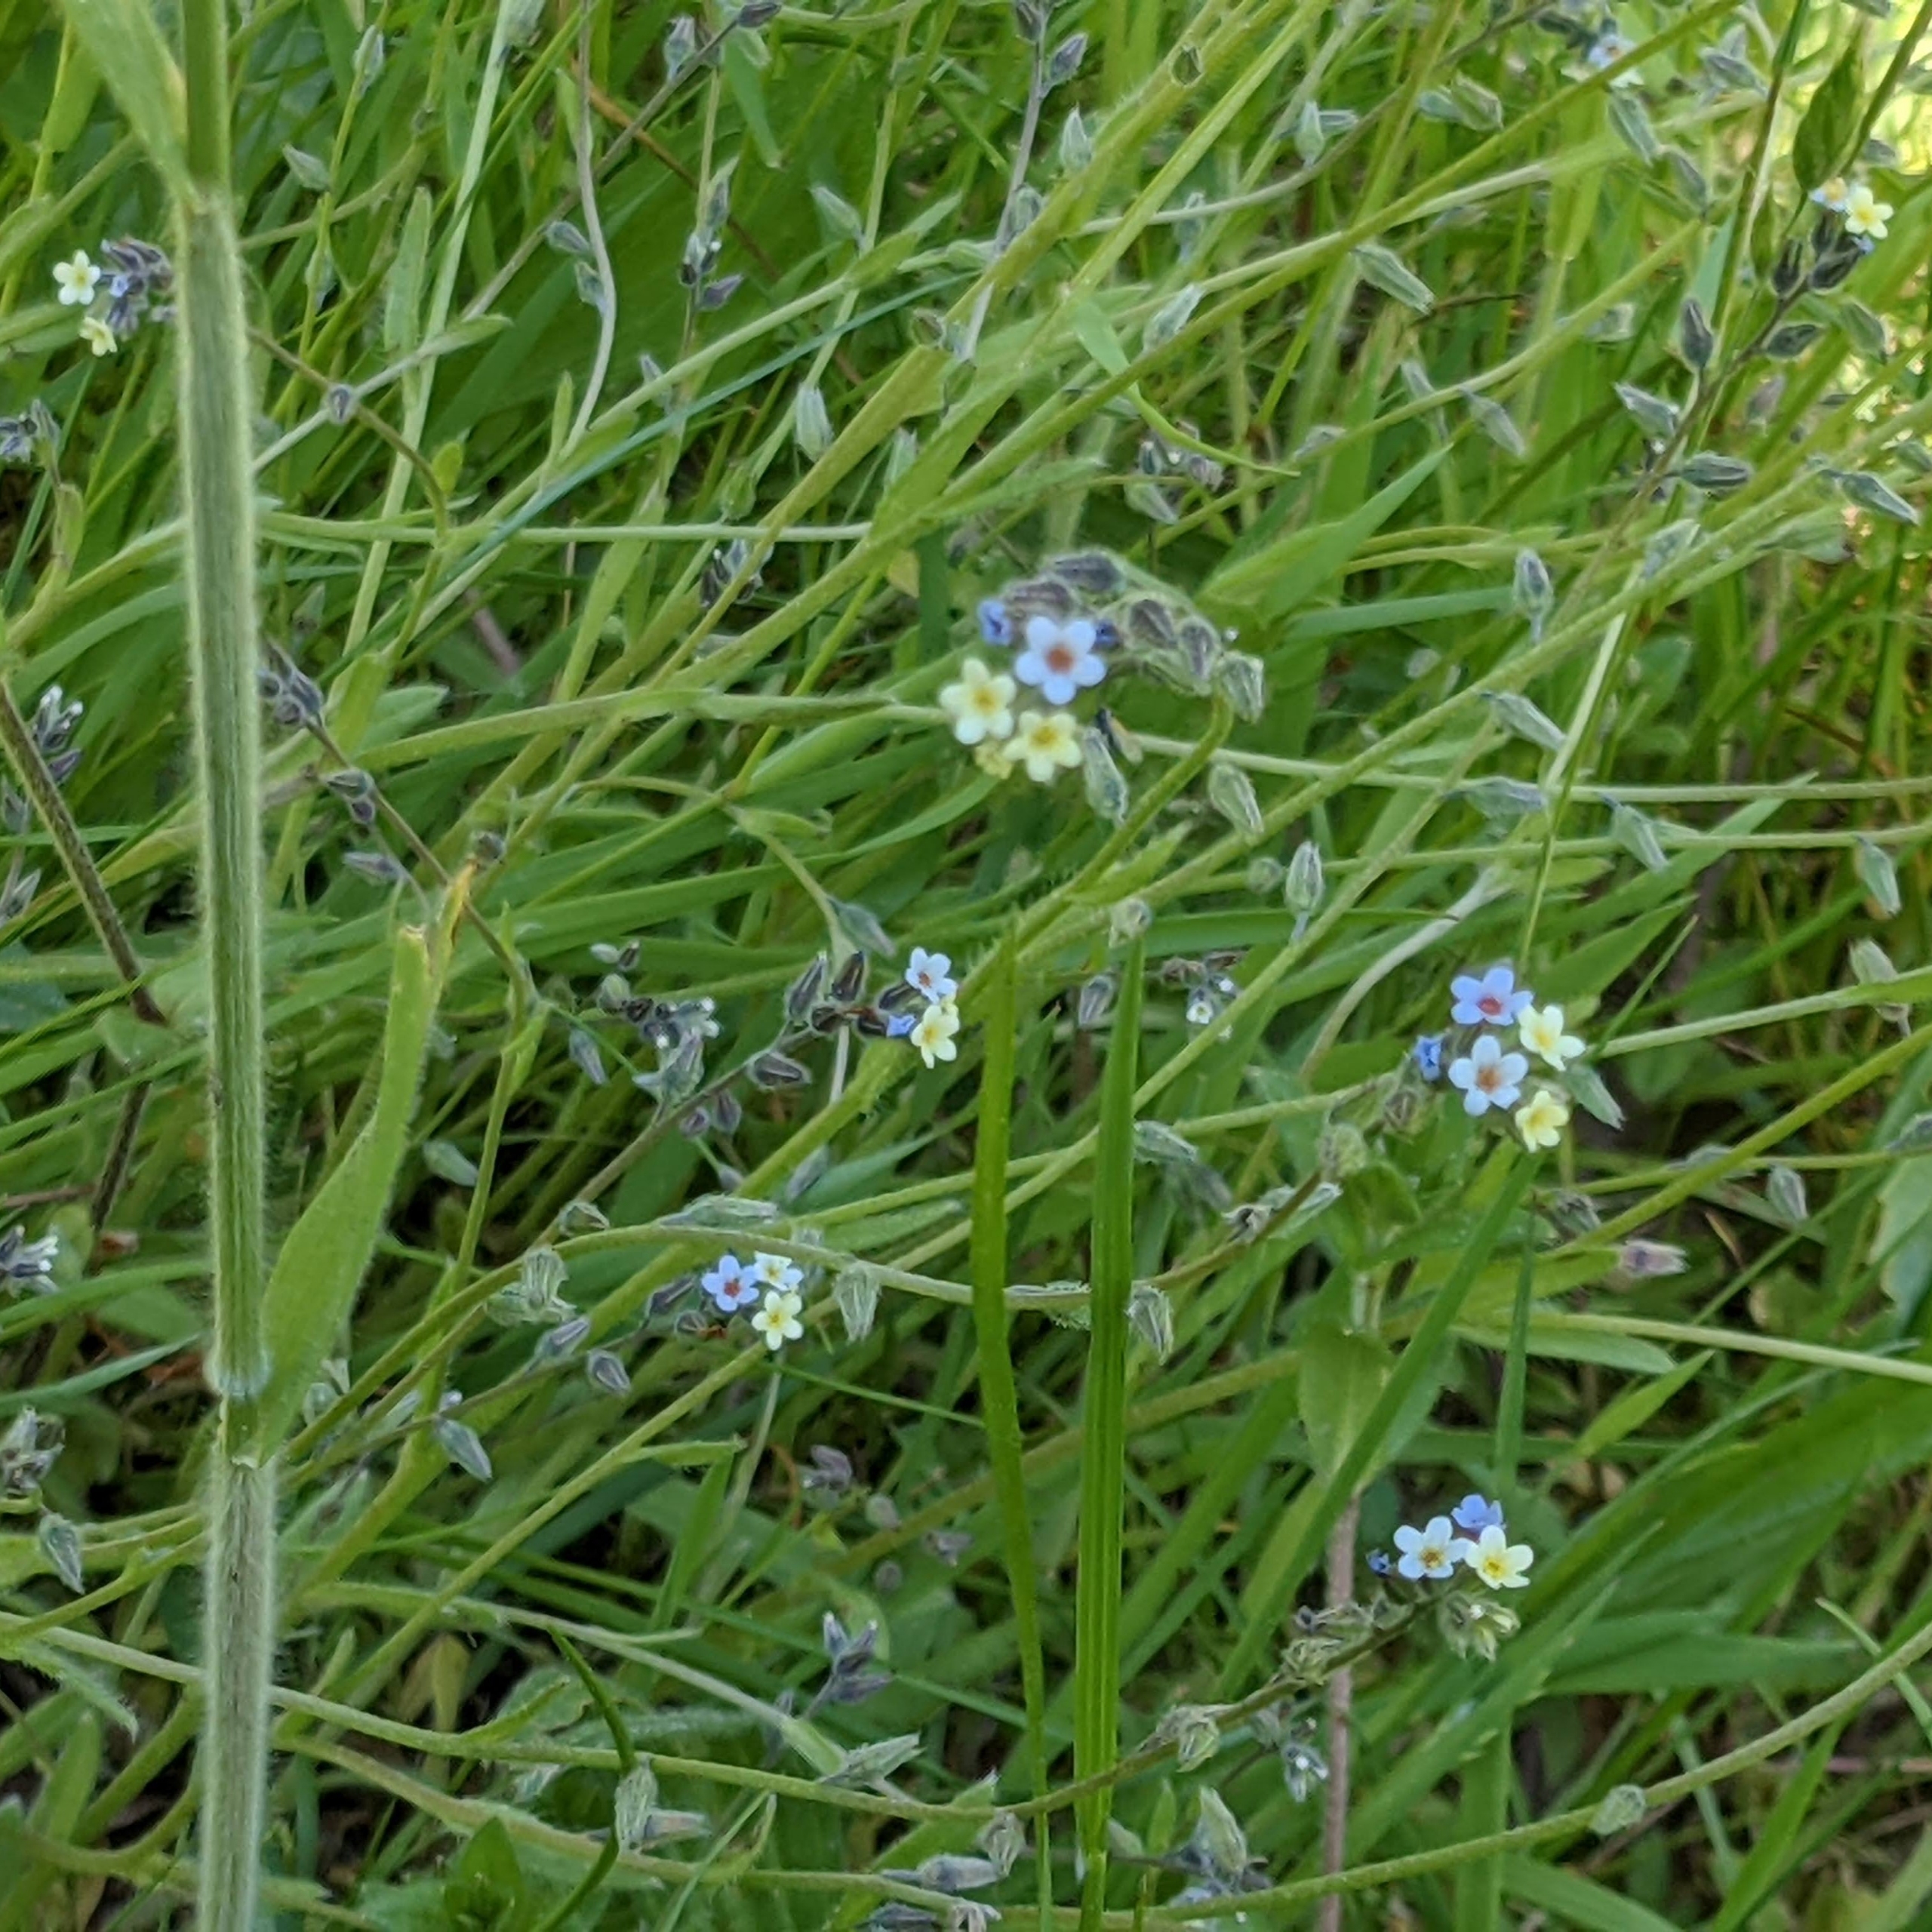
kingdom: Plantae
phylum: Tracheophyta
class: Magnoliopsida
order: Boraginales
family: Boraginaceae
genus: Myosotis
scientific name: Myosotis discolor
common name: Forskelligfarvet forglemmigej
